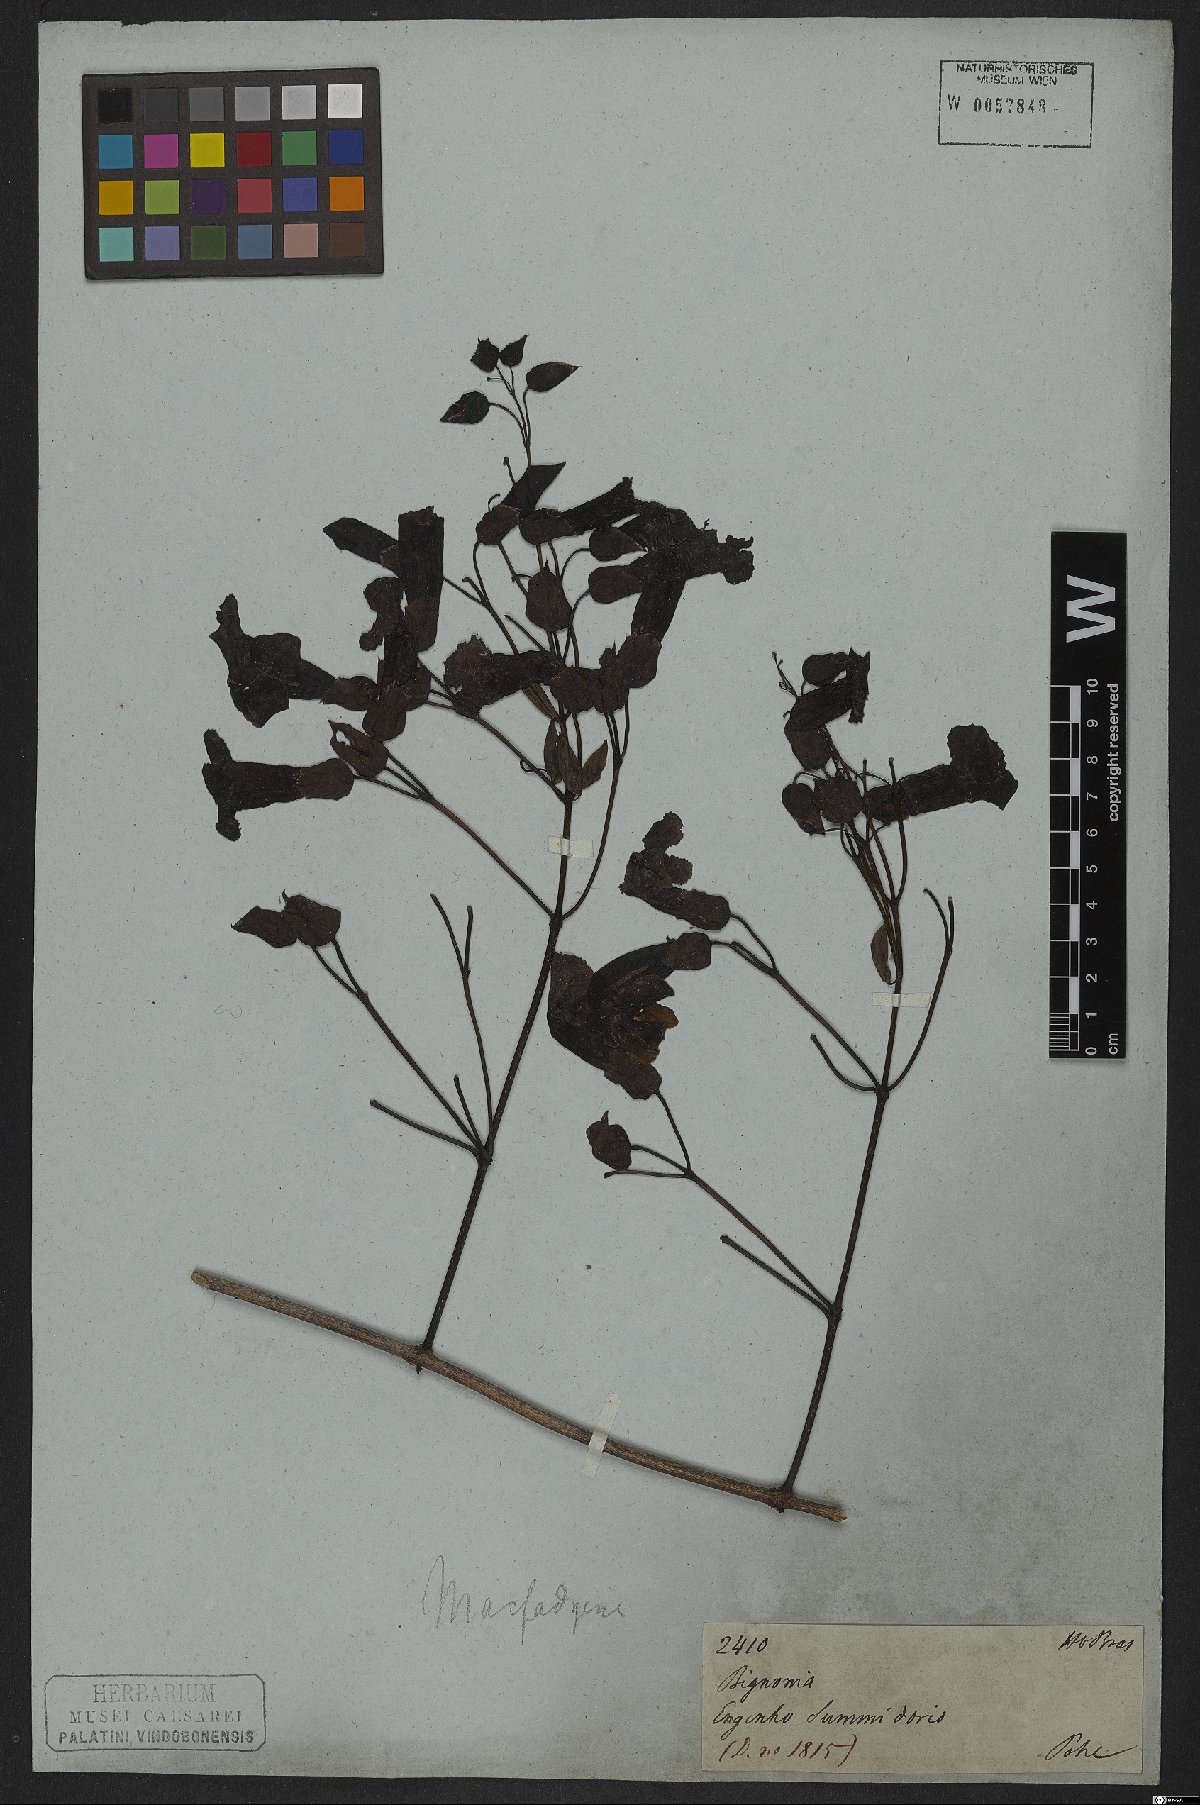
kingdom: Plantae
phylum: Tracheophyta
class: Magnoliopsida
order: Lamiales
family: Bignoniaceae
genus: Dolichandra
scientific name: Dolichandra quadrivalvis
